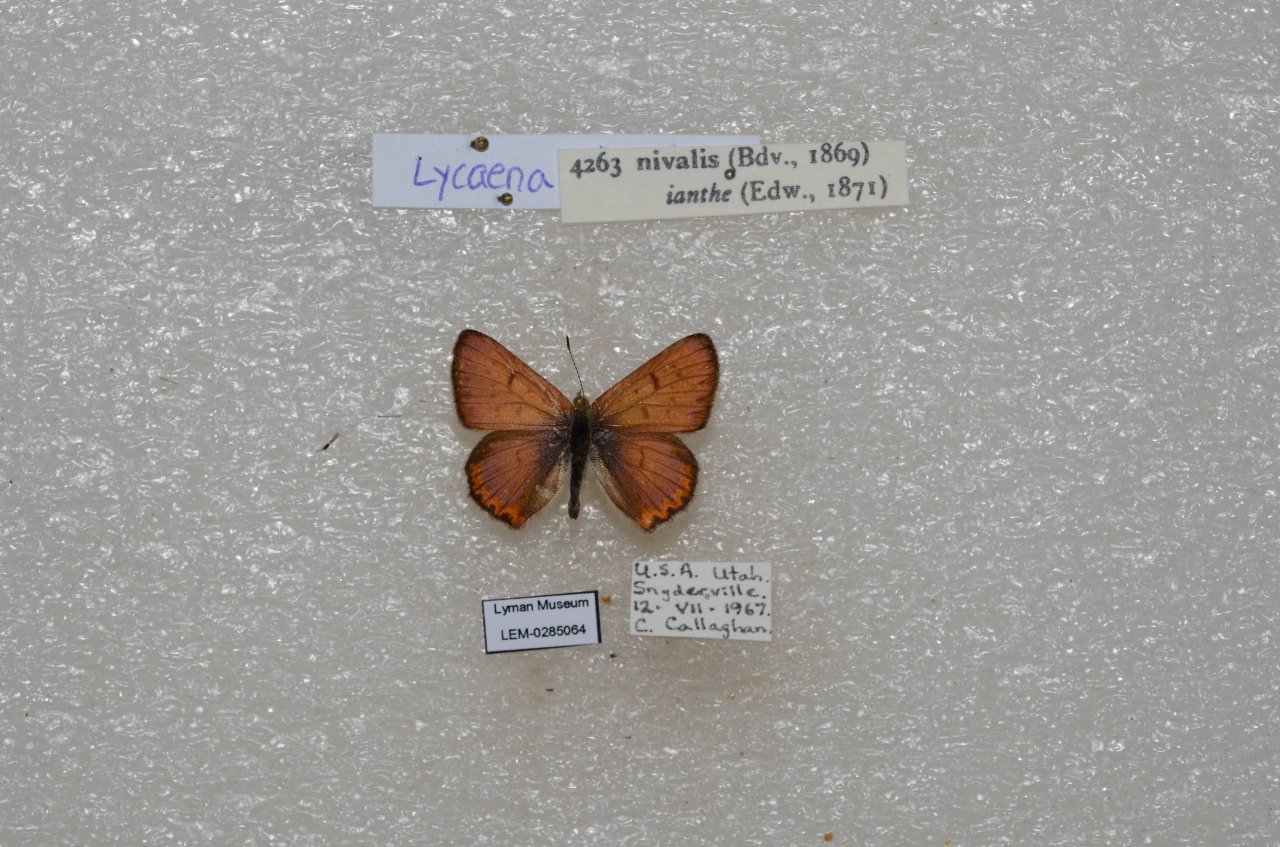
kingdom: Animalia
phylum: Arthropoda
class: Insecta
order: Lepidoptera
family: Lycaenidae
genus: Lycaena
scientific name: Lycaena nivalis
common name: Lilac-bordered Copper
